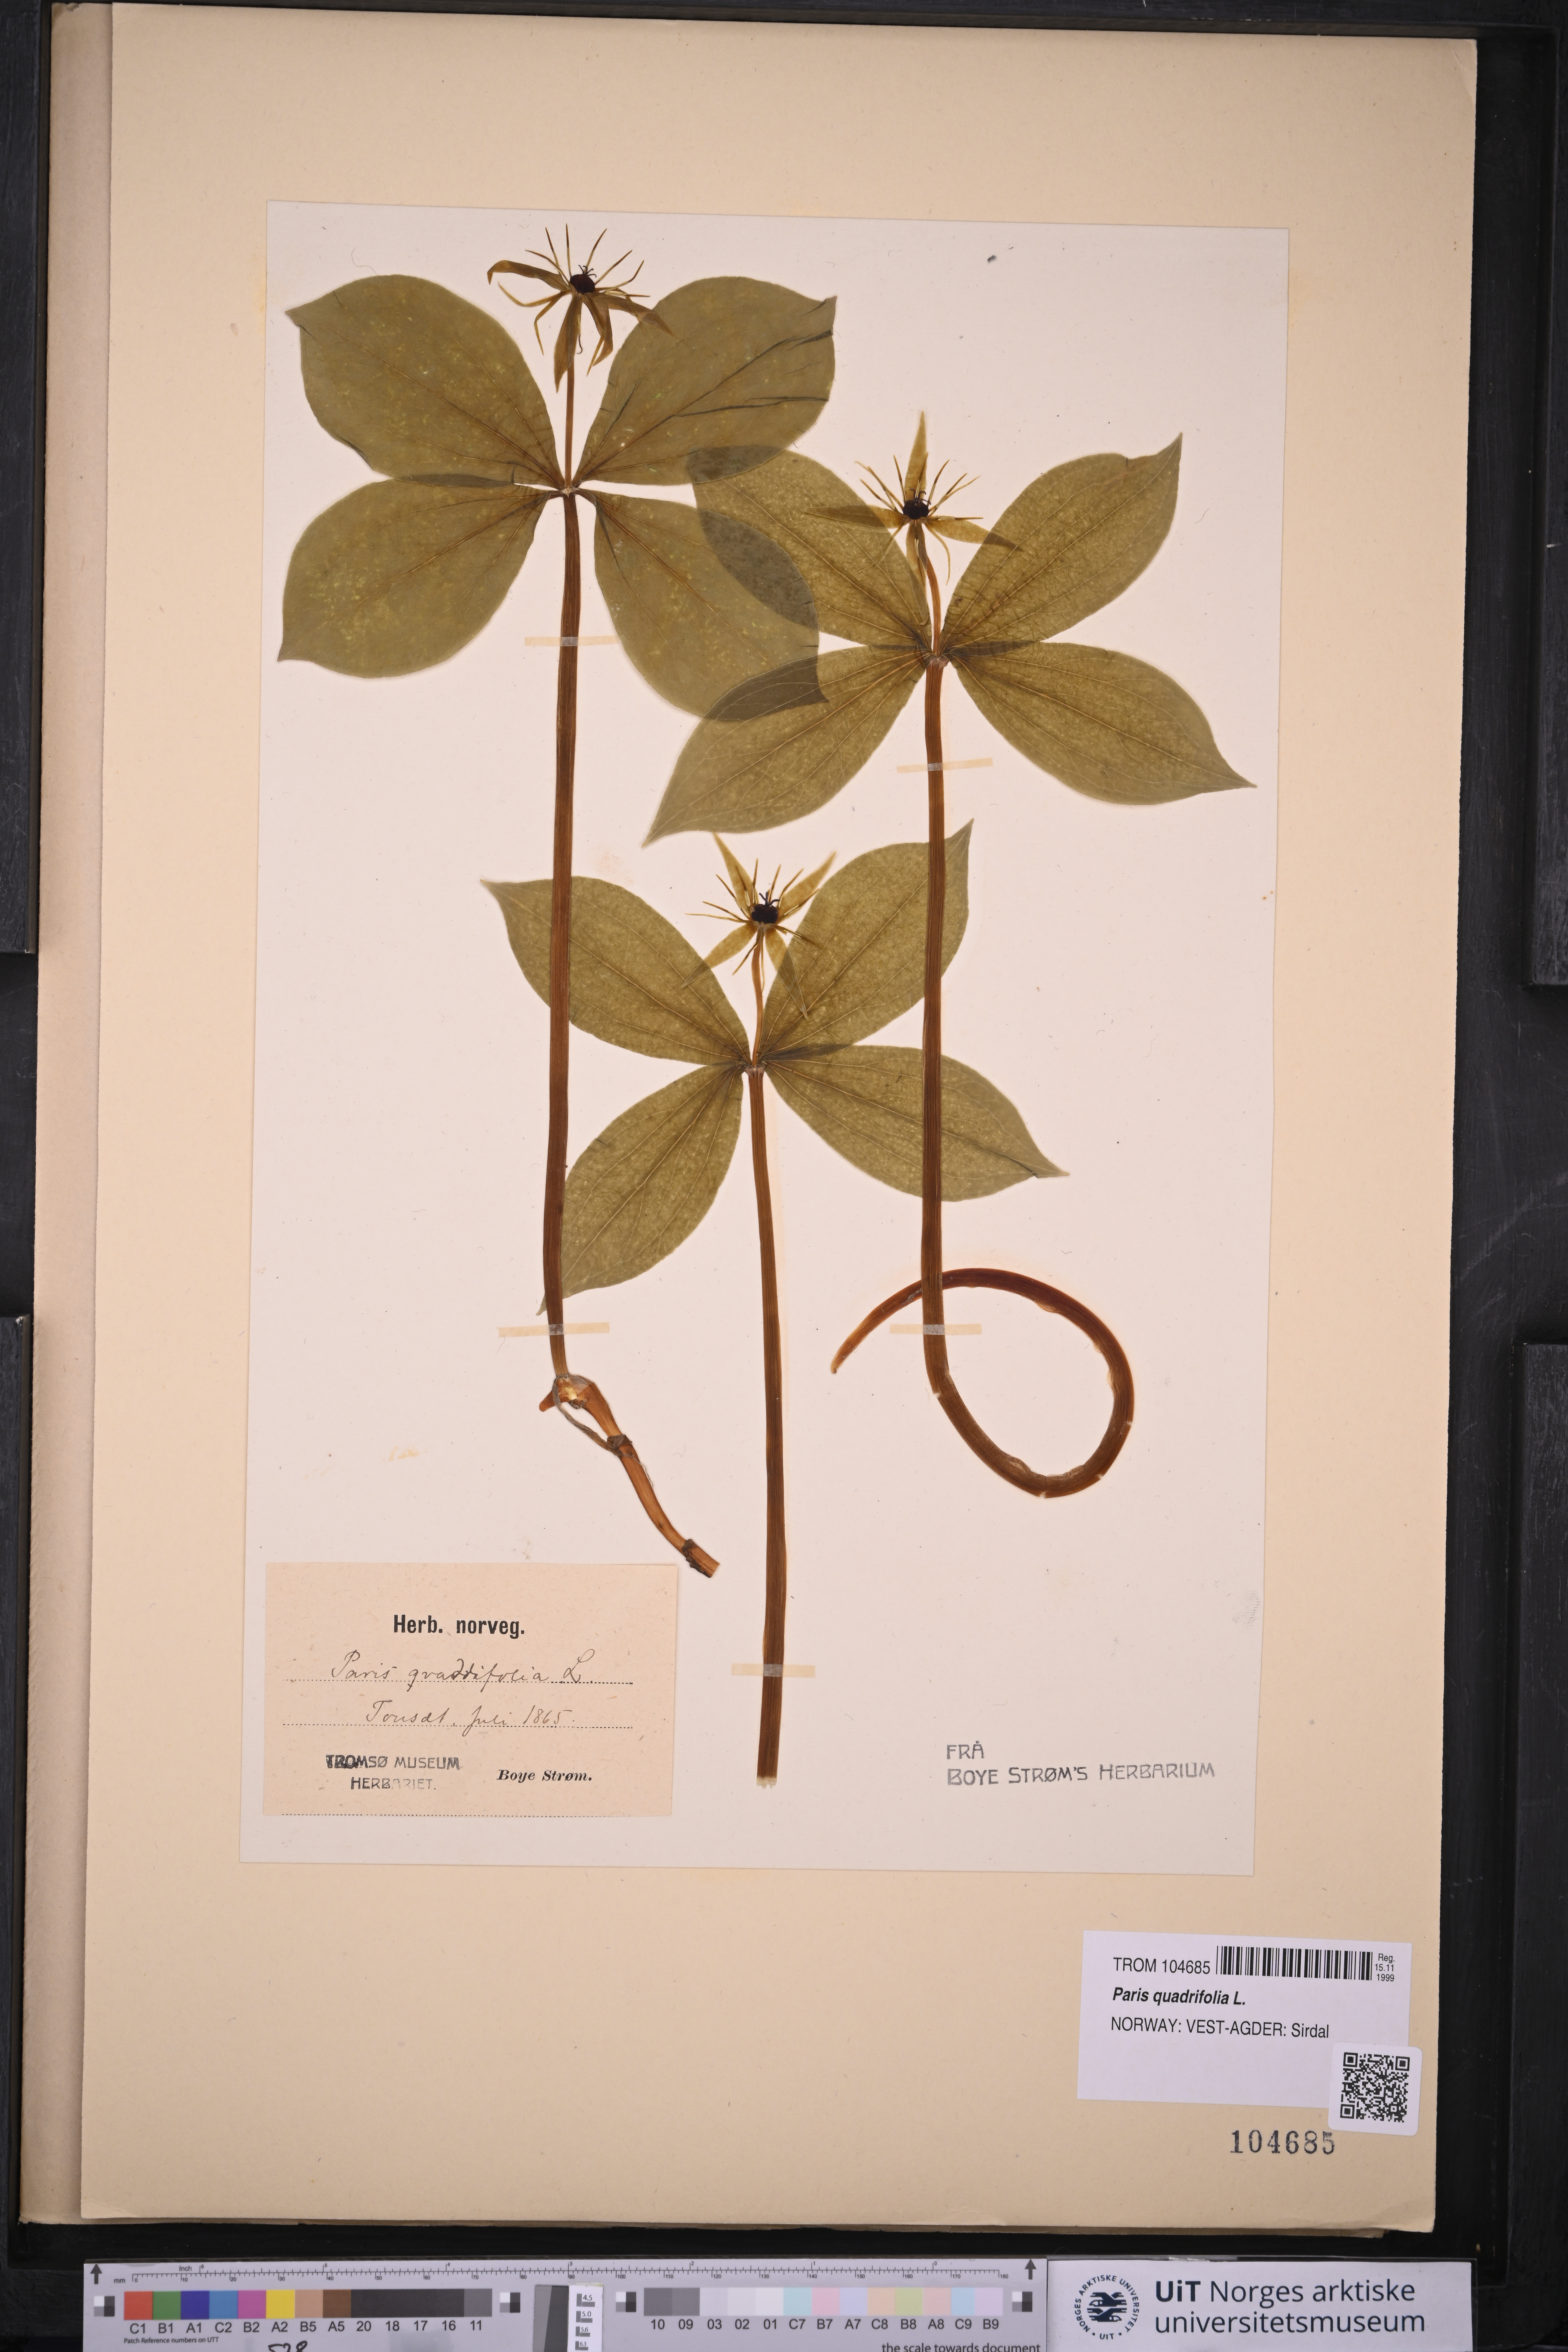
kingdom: Plantae
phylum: Tracheophyta
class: Liliopsida
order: Liliales
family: Melanthiaceae
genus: Paris
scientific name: Paris quadrifolia
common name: Herb-paris
